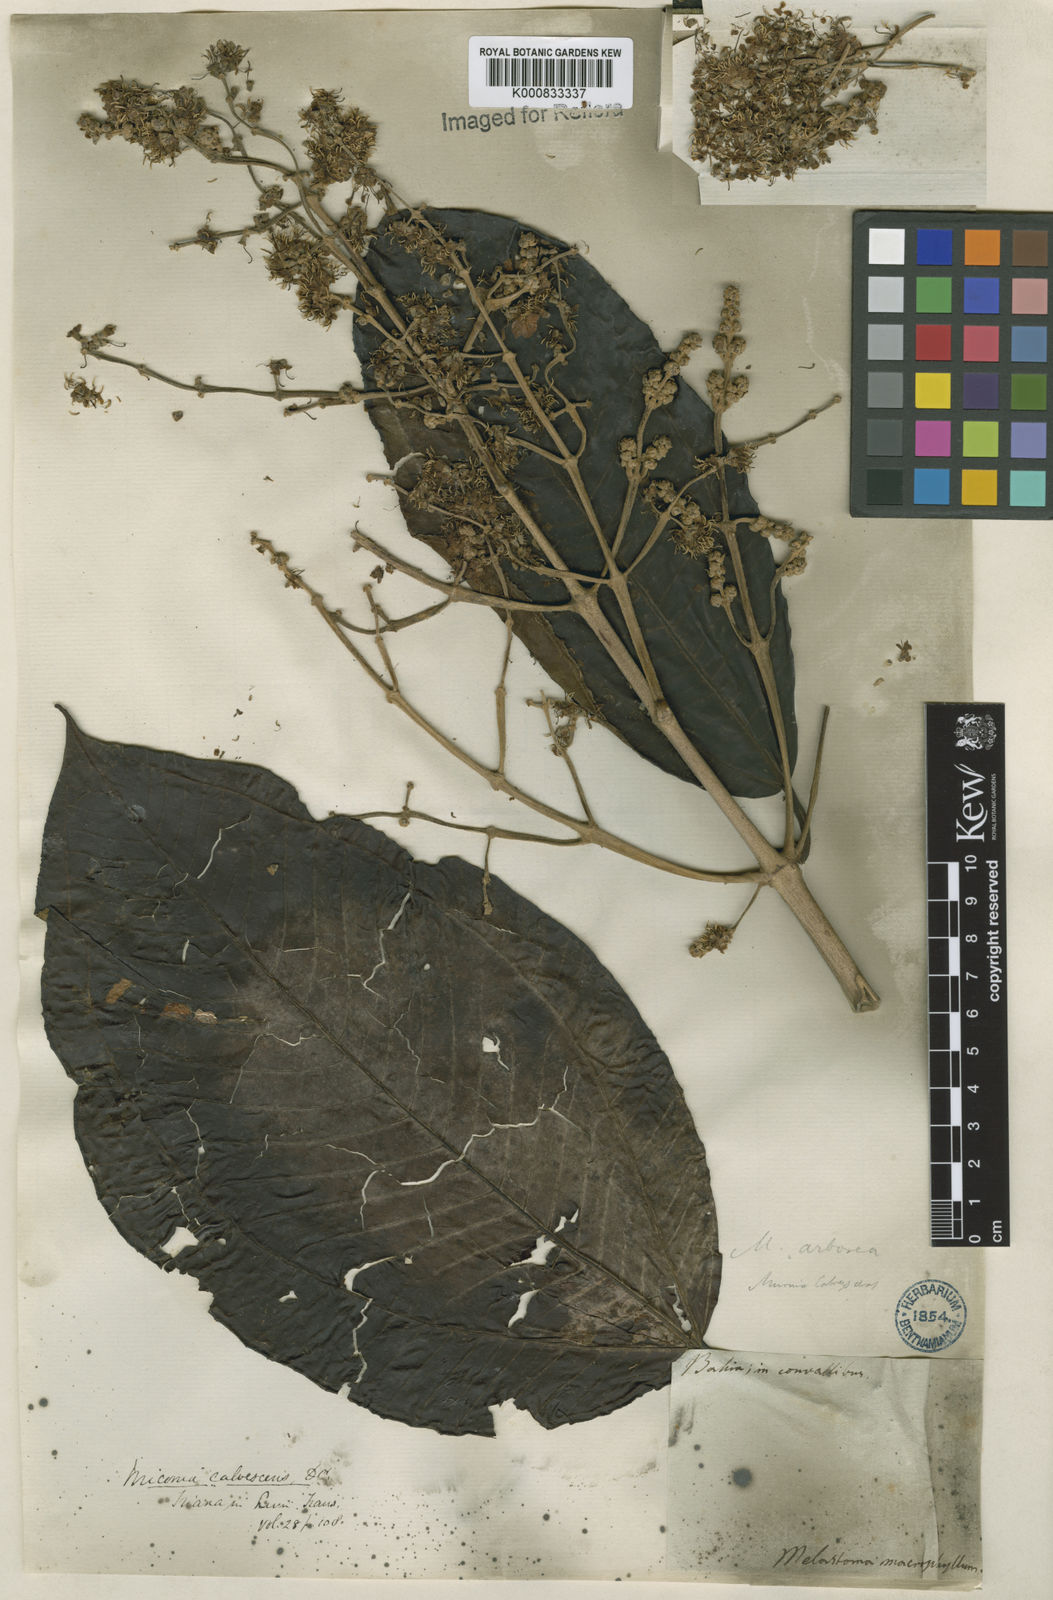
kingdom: Plantae
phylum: Tracheophyta
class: Magnoliopsida
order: Myrtales
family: Melastomataceae
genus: Miconia
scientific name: Miconia calvescens
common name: Purple plague
